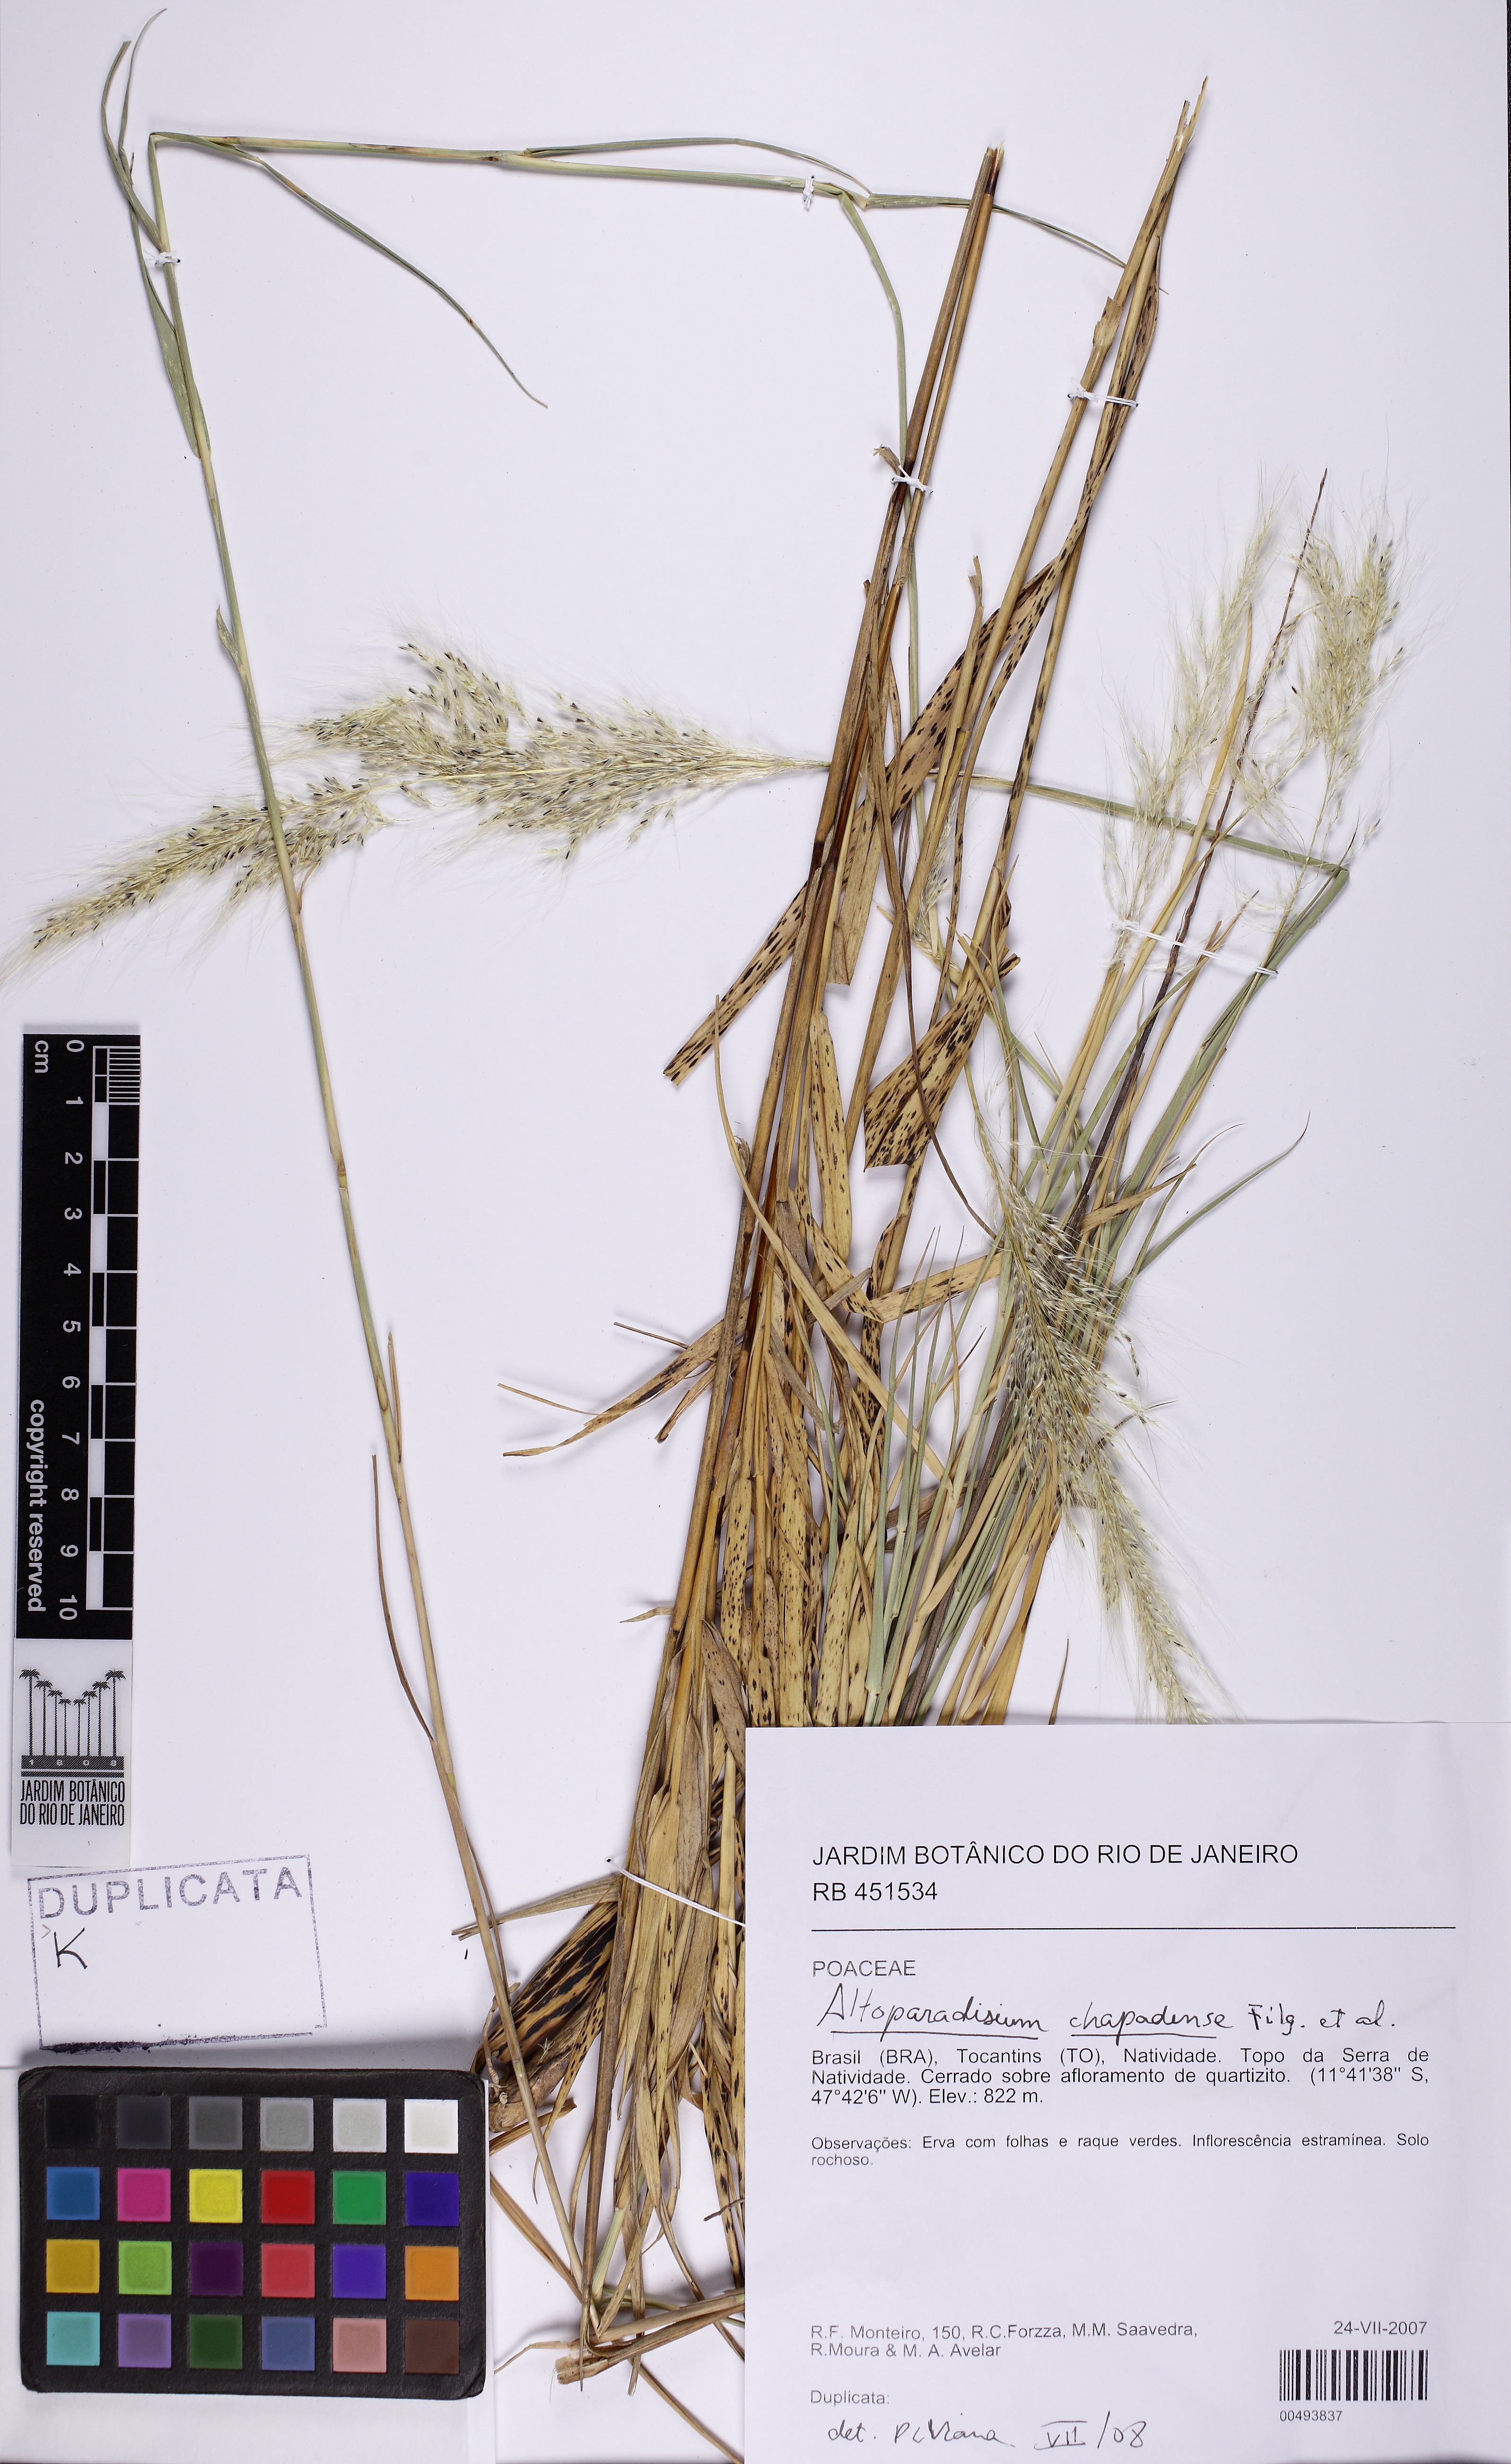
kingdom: Plantae
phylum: Tracheophyta
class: Liliopsida
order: Poales
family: Poaceae
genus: Altoparadisium
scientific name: Altoparadisium chapadense
